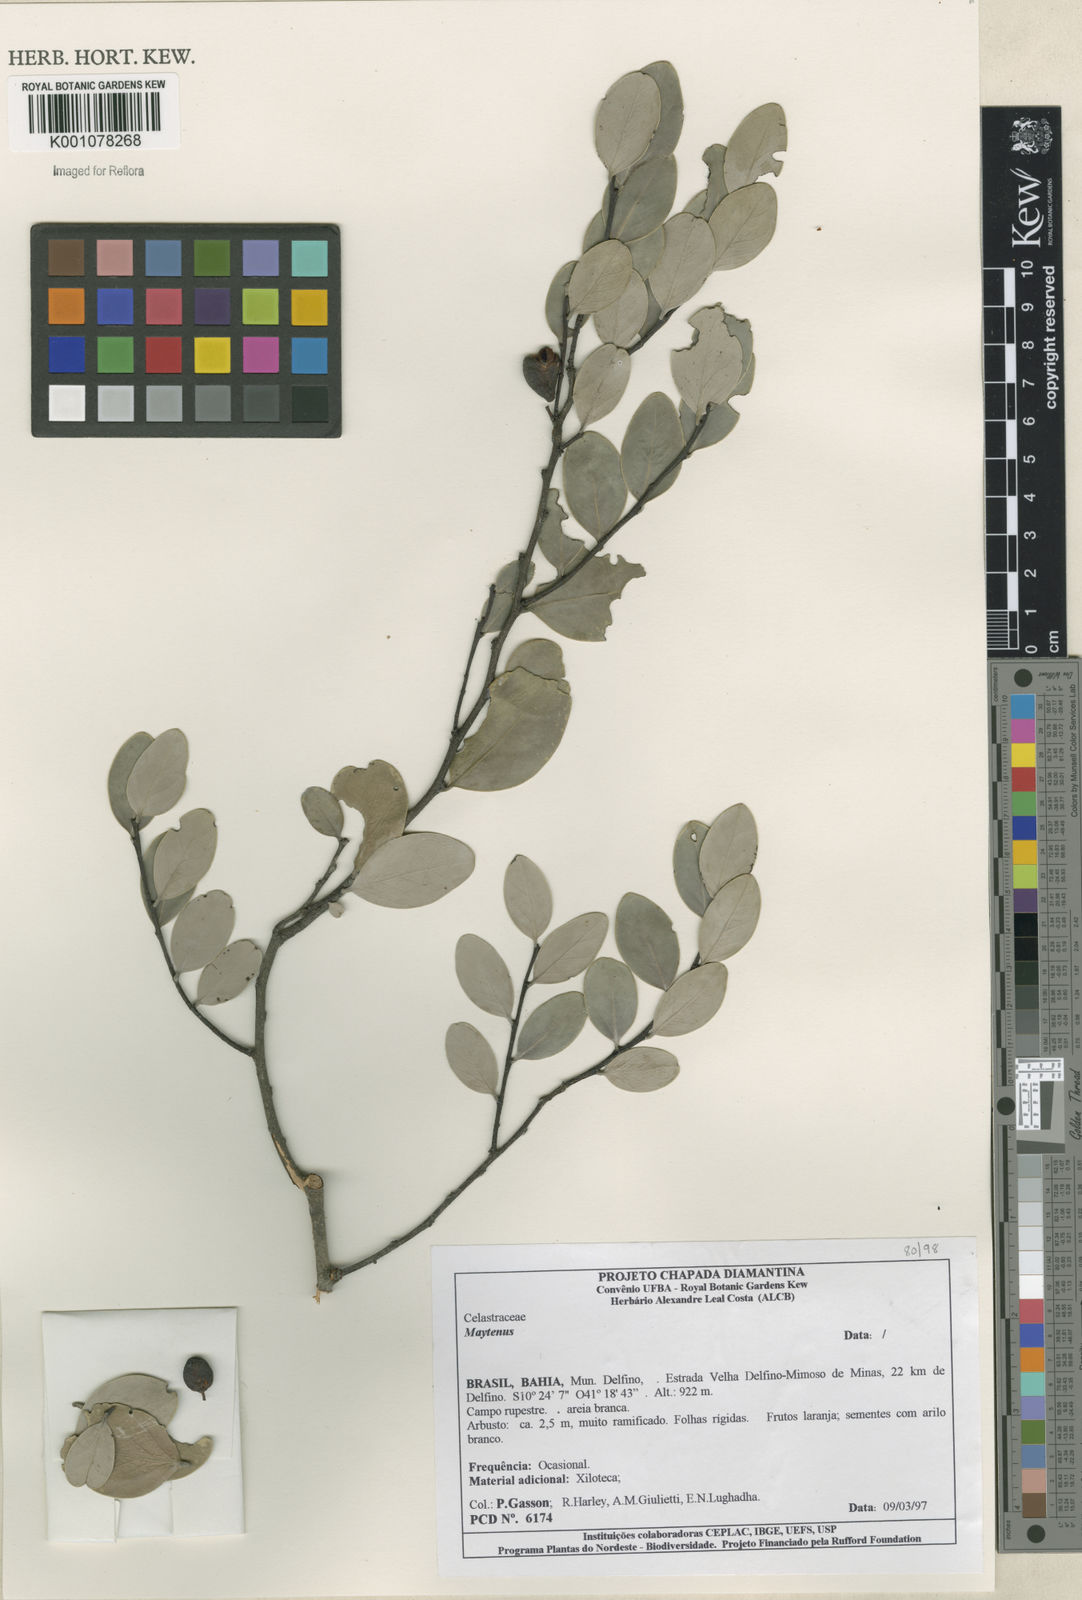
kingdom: Plantae
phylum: Tracheophyta
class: Magnoliopsida
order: Celastrales
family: Celastraceae
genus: Maytenus
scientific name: Maytenus
